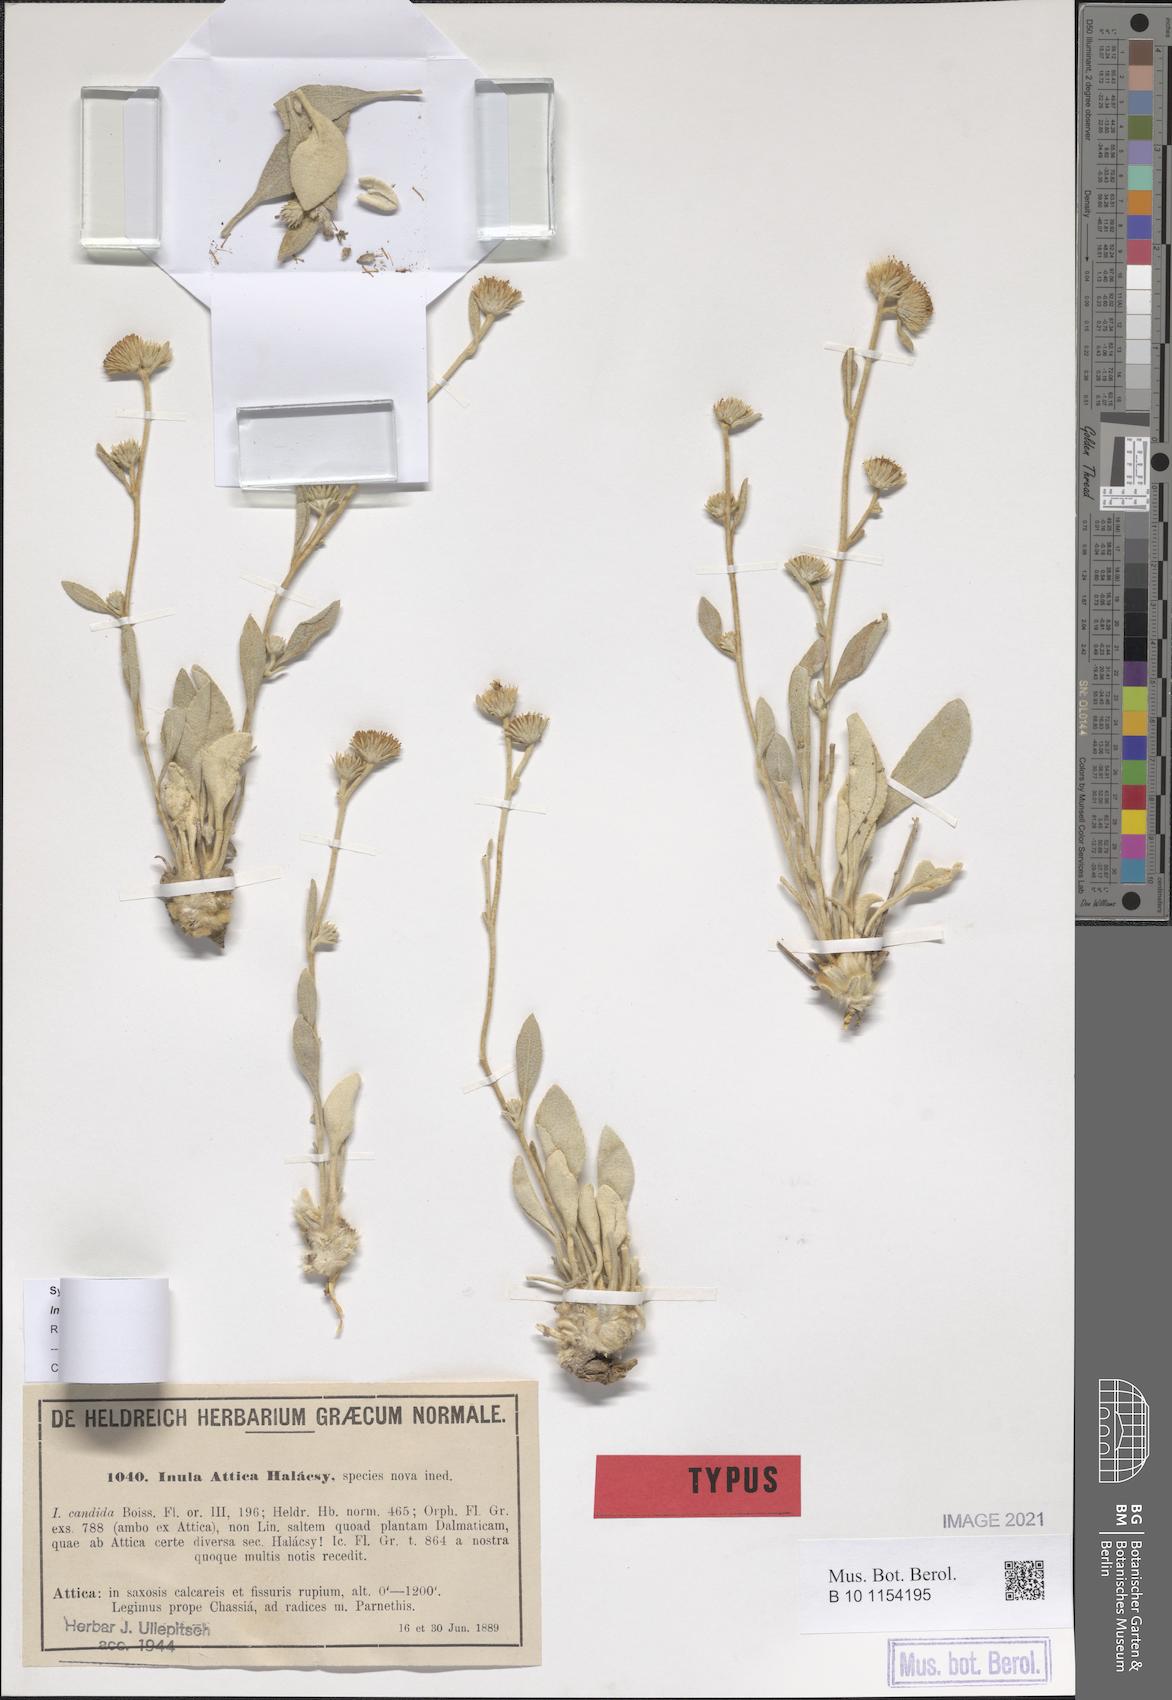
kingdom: Plantae
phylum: Tracheophyta
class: Magnoliopsida
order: Asterales
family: Asteraceae
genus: Pentanema
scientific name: Pentanema verbascifolium
